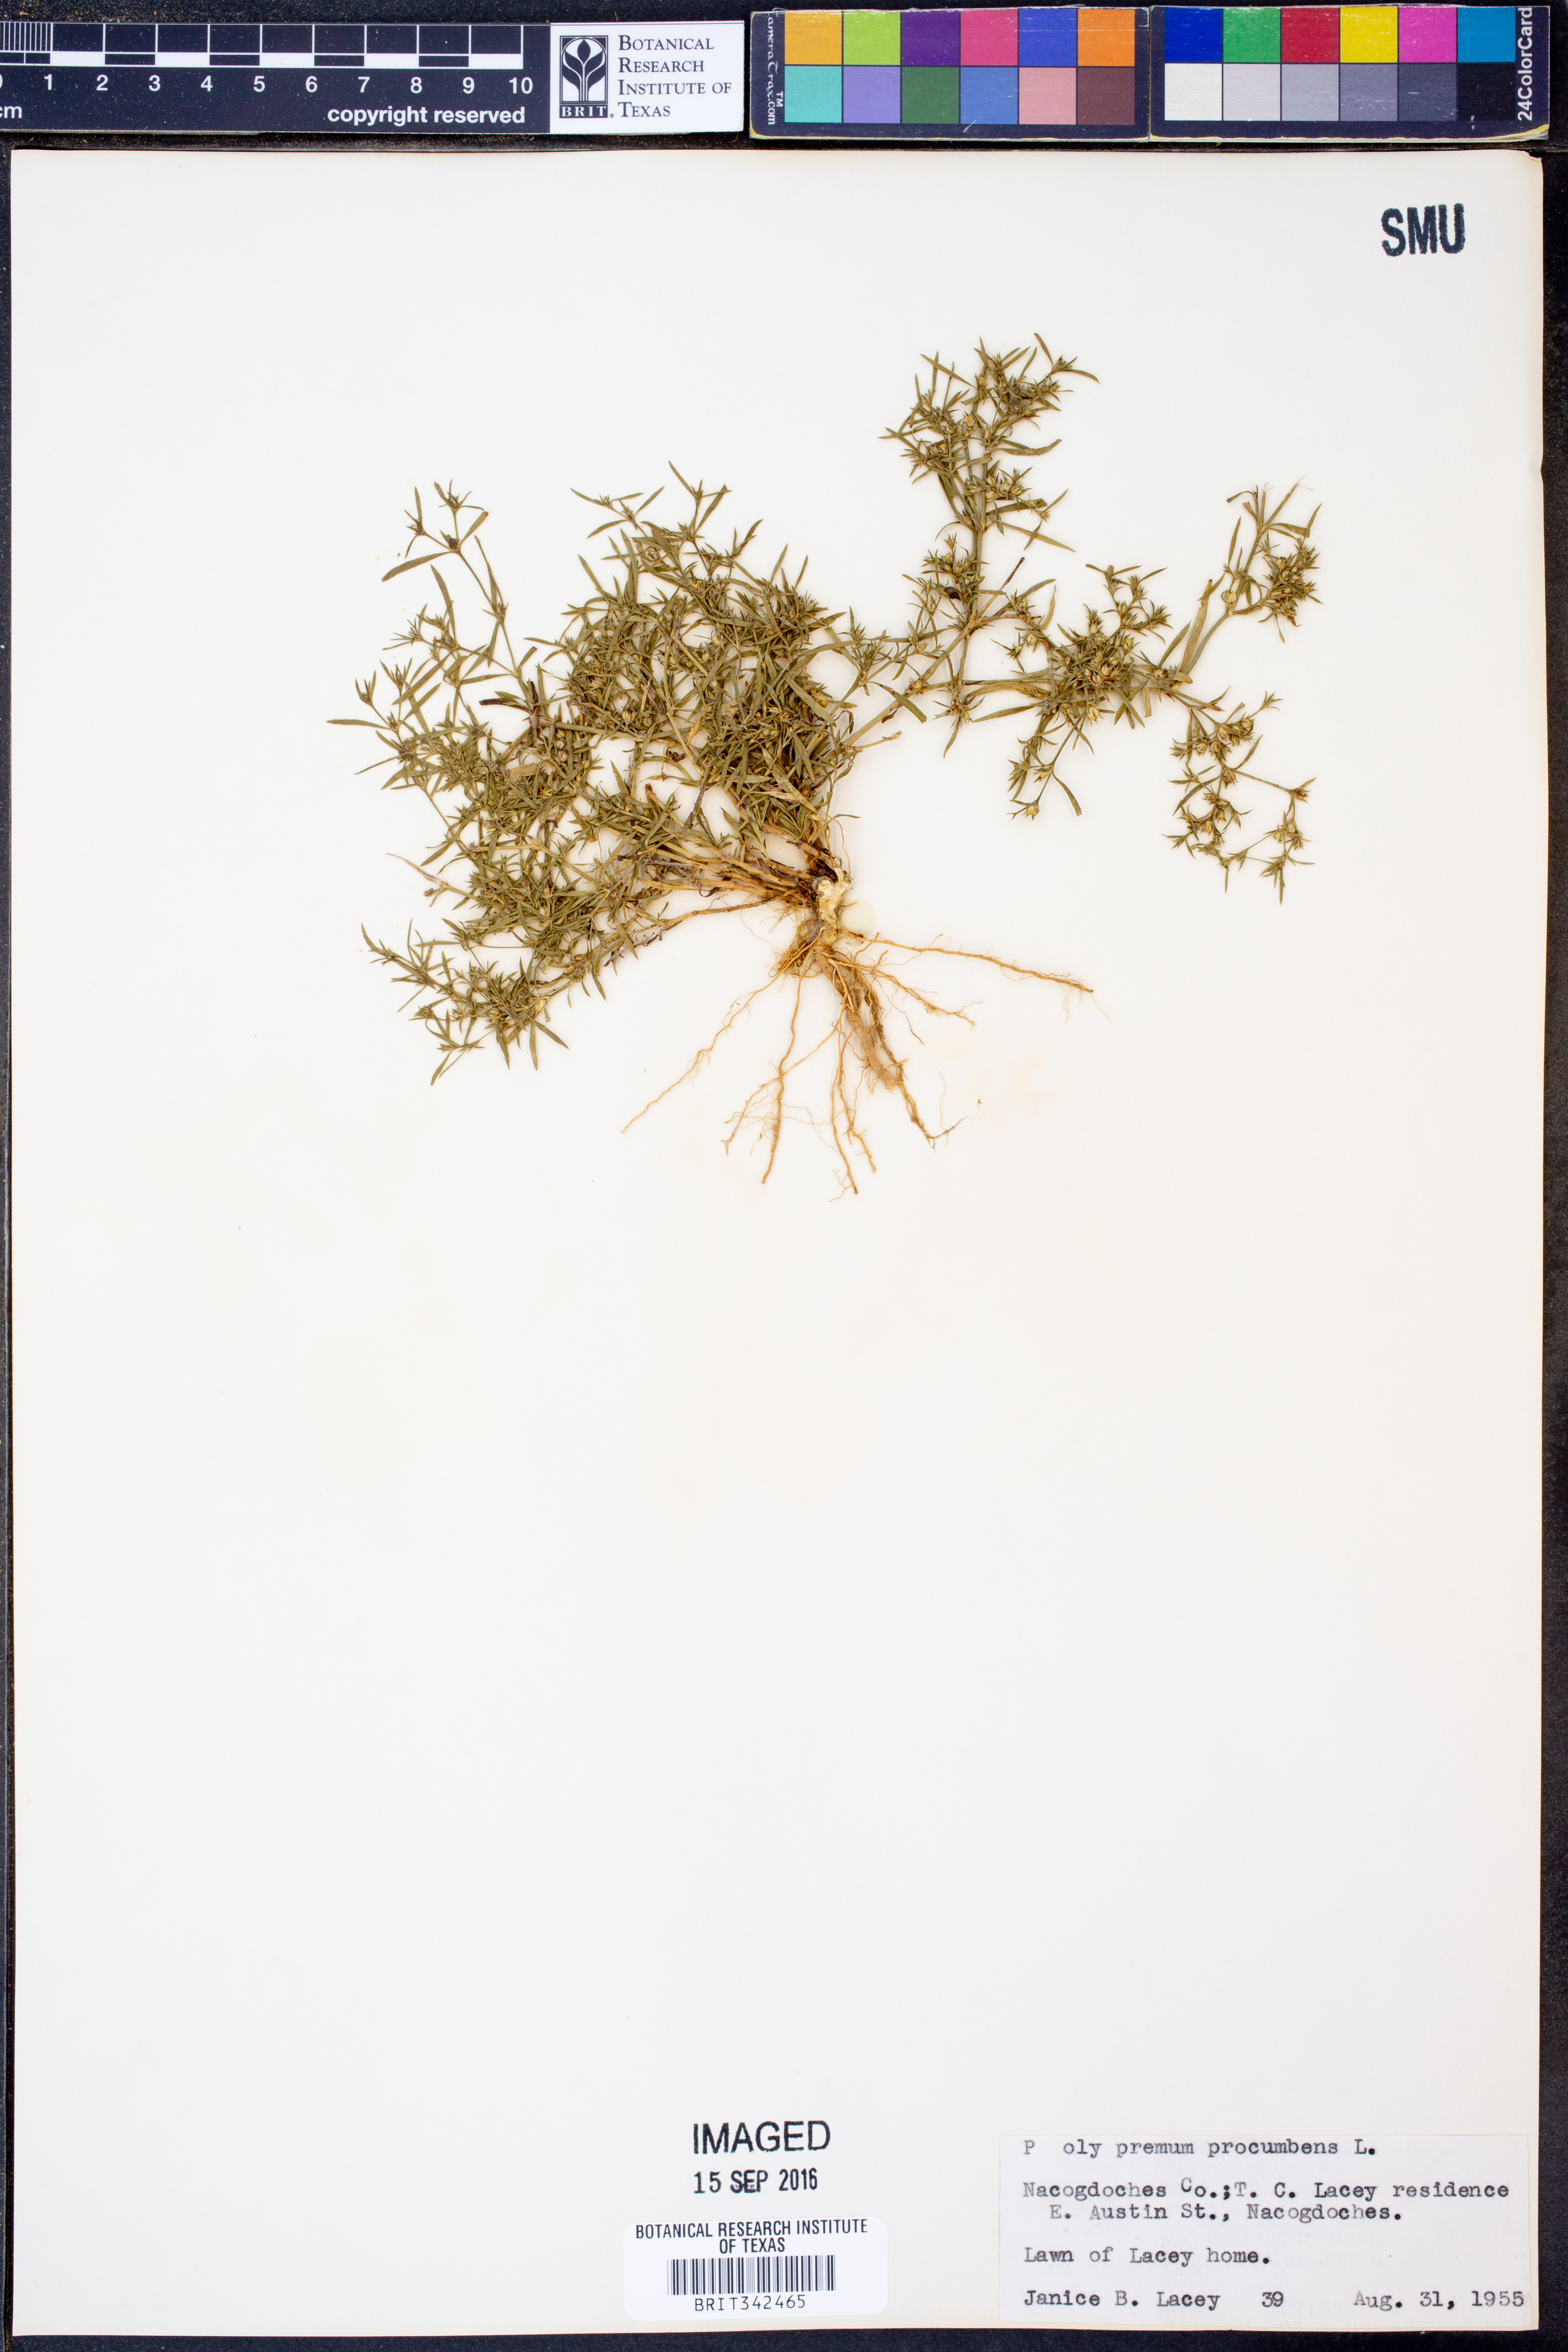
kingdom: Plantae
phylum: Tracheophyta
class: Magnoliopsida
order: Lamiales
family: Tetrachondraceae
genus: Polypremum
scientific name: Polypremum procumbens
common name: Juniper-leaf
